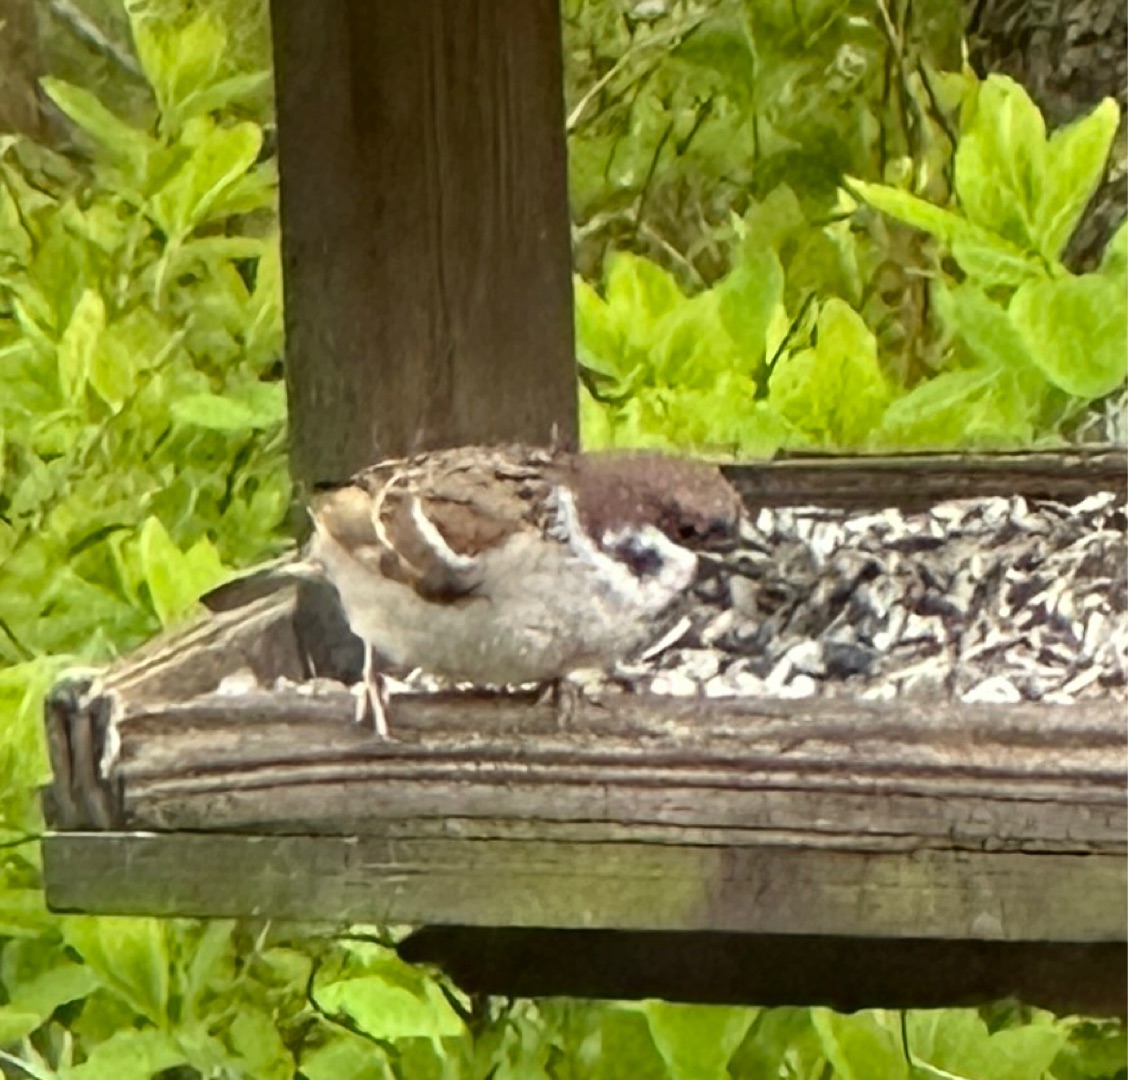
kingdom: Animalia
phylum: Chordata
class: Aves
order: Passeriformes
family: Passeridae
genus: Passer
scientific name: Passer montanus
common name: Skovspurv
